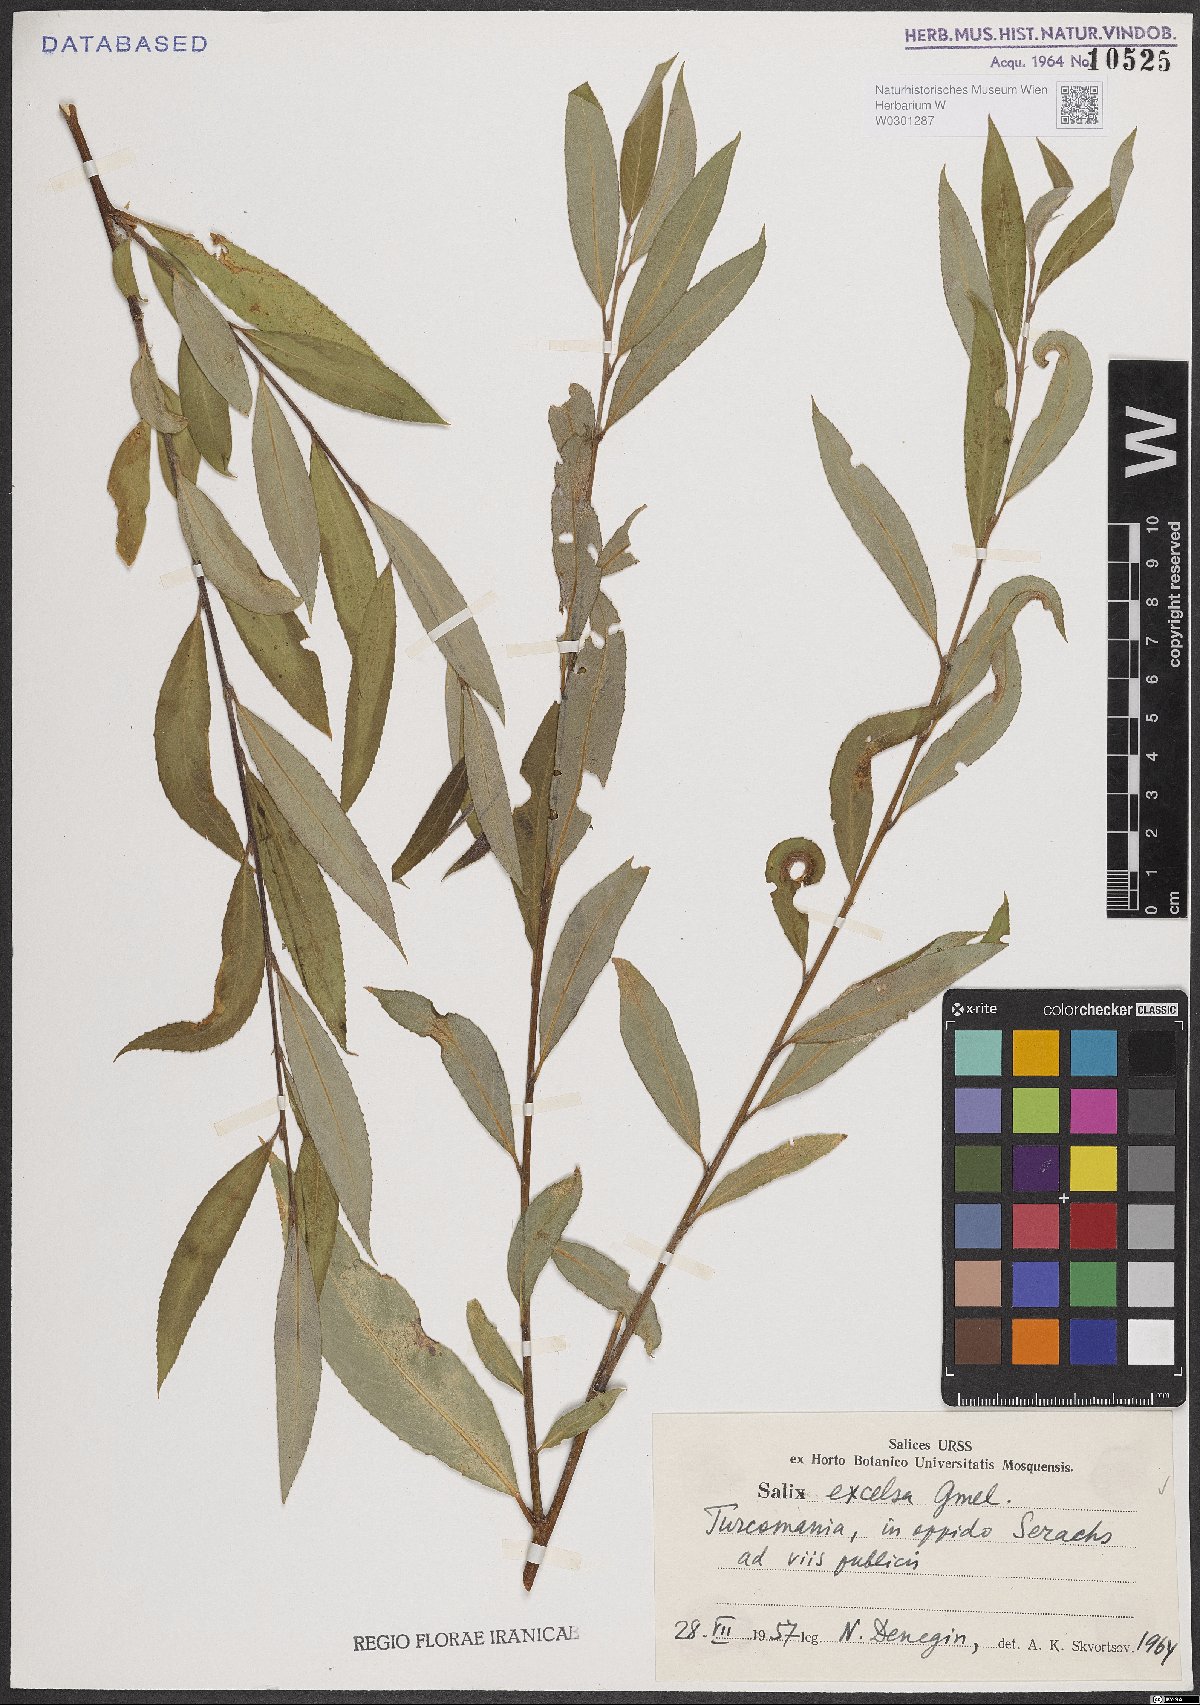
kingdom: Plantae
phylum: Tracheophyta
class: Magnoliopsida
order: Malpighiales
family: Salicaceae
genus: Salix
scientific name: Salix excelsa
